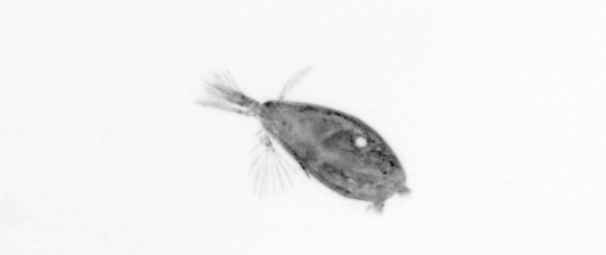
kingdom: Animalia
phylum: Arthropoda
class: Maxillopoda
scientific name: Maxillopoda
